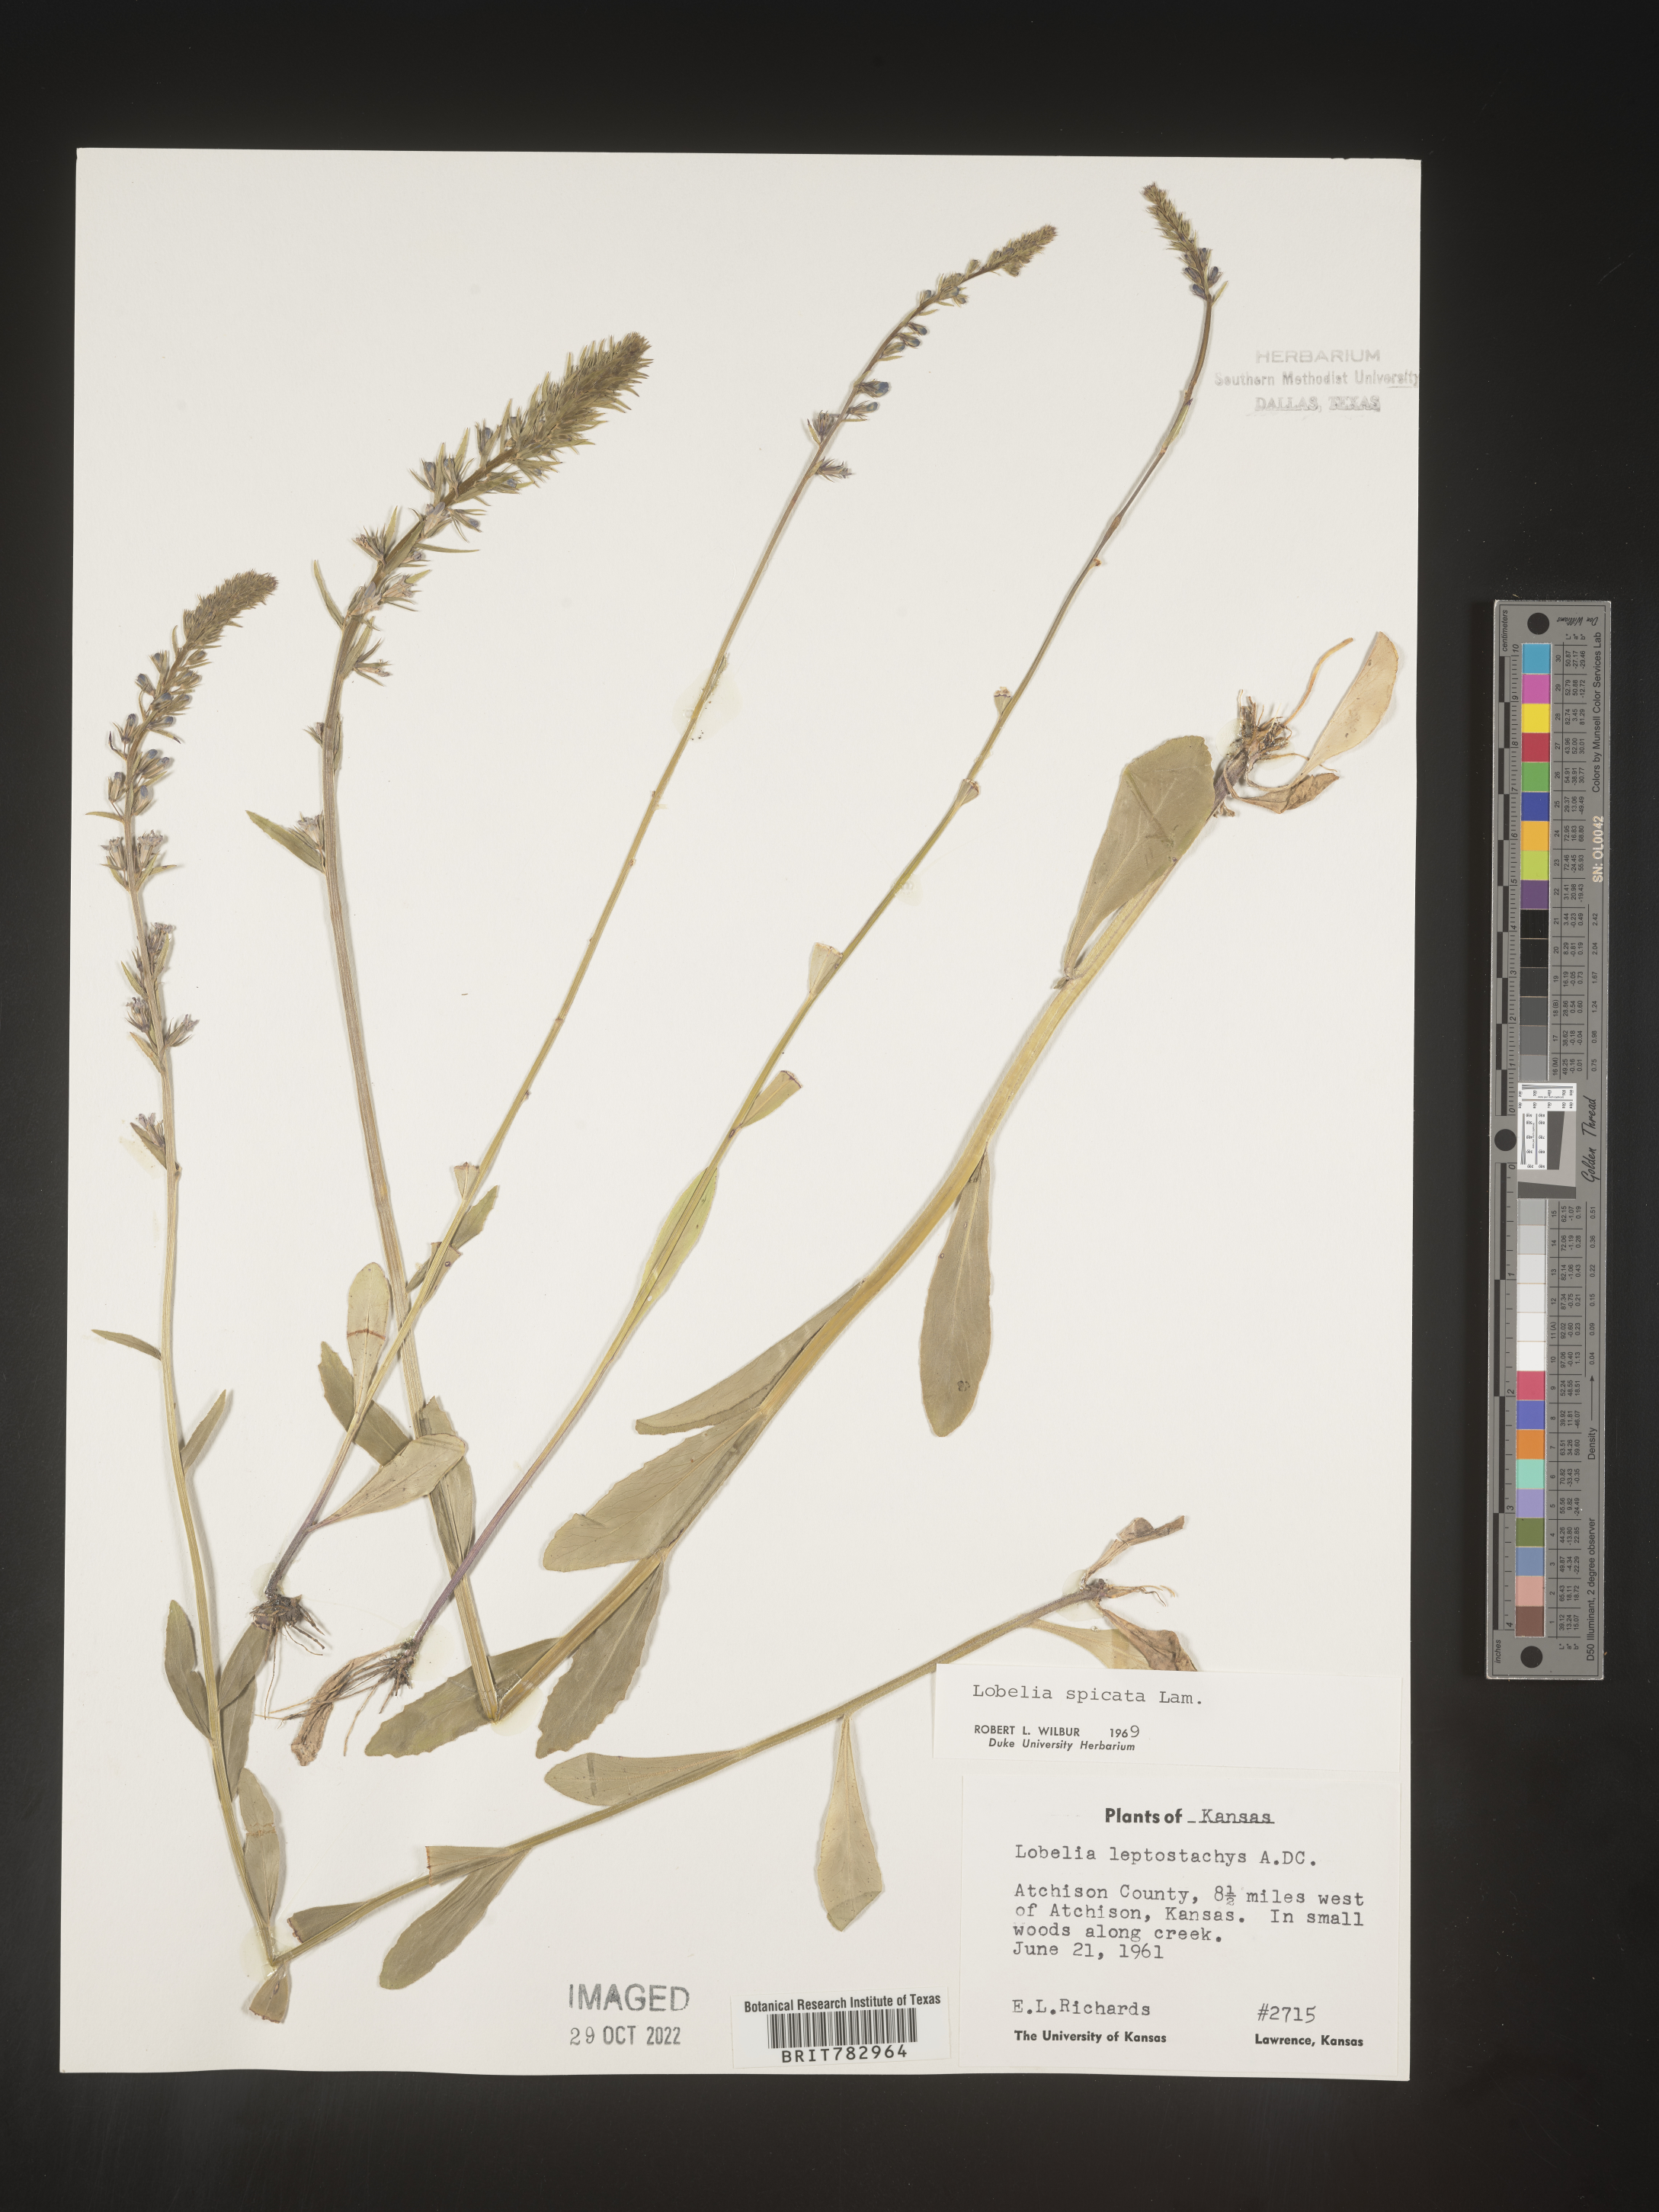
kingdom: Plantae
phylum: Tracheophyta
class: Magnoliopsida
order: Asterales
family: Campanulaceae
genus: Lobelia
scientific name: Lobelia spicata
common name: Pale-spike lobelia
